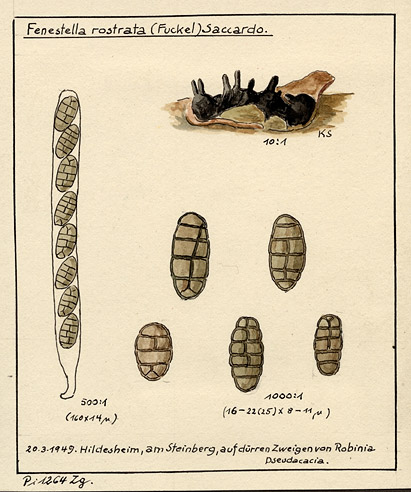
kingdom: Fungi
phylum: Ascomycota
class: Sordariomycetes
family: Thyridiaceae
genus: Thyridium
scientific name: Thyridium vestitum
